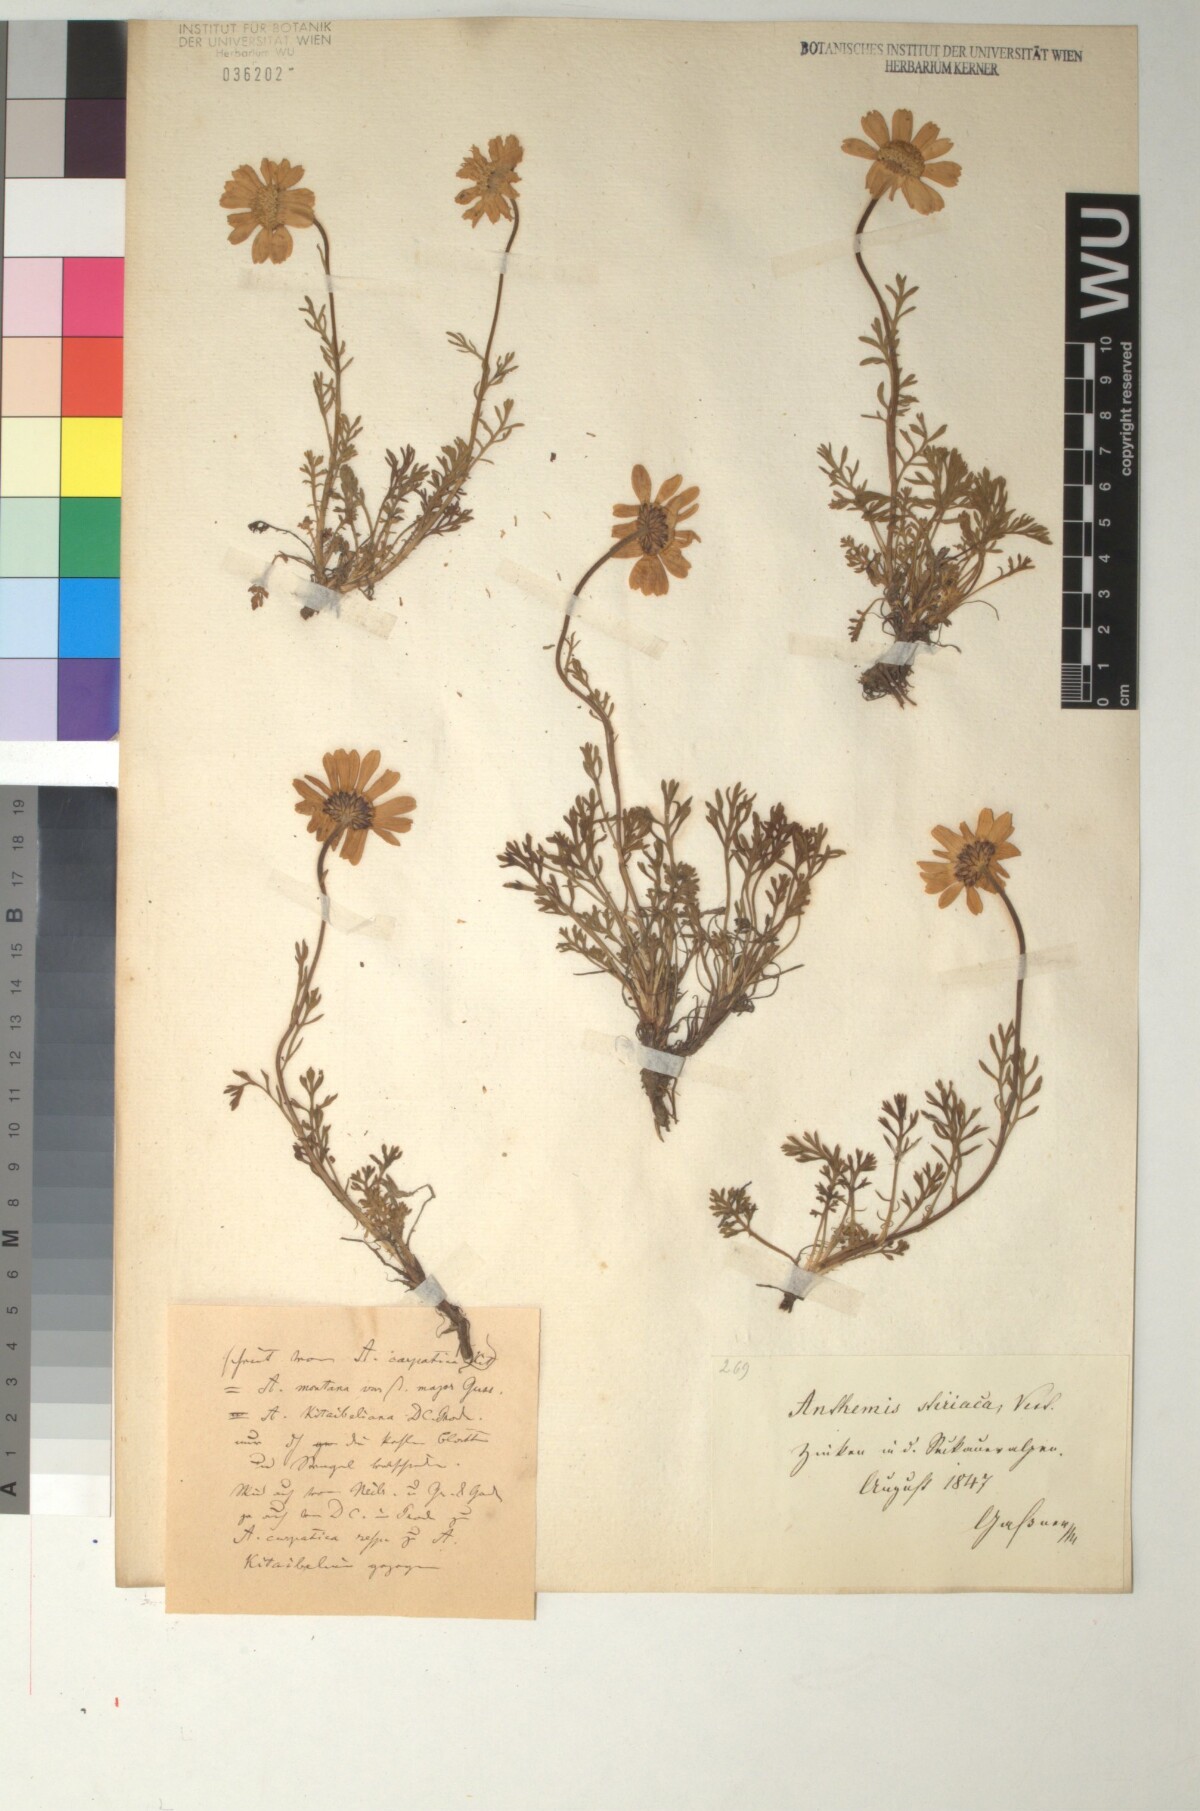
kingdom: Plantae
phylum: Tracheophyta
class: Magnoliopsida
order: Asterales
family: Asteraceae
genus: Anthemis
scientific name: Anthemis cretica
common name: Mountain dog-daisy
